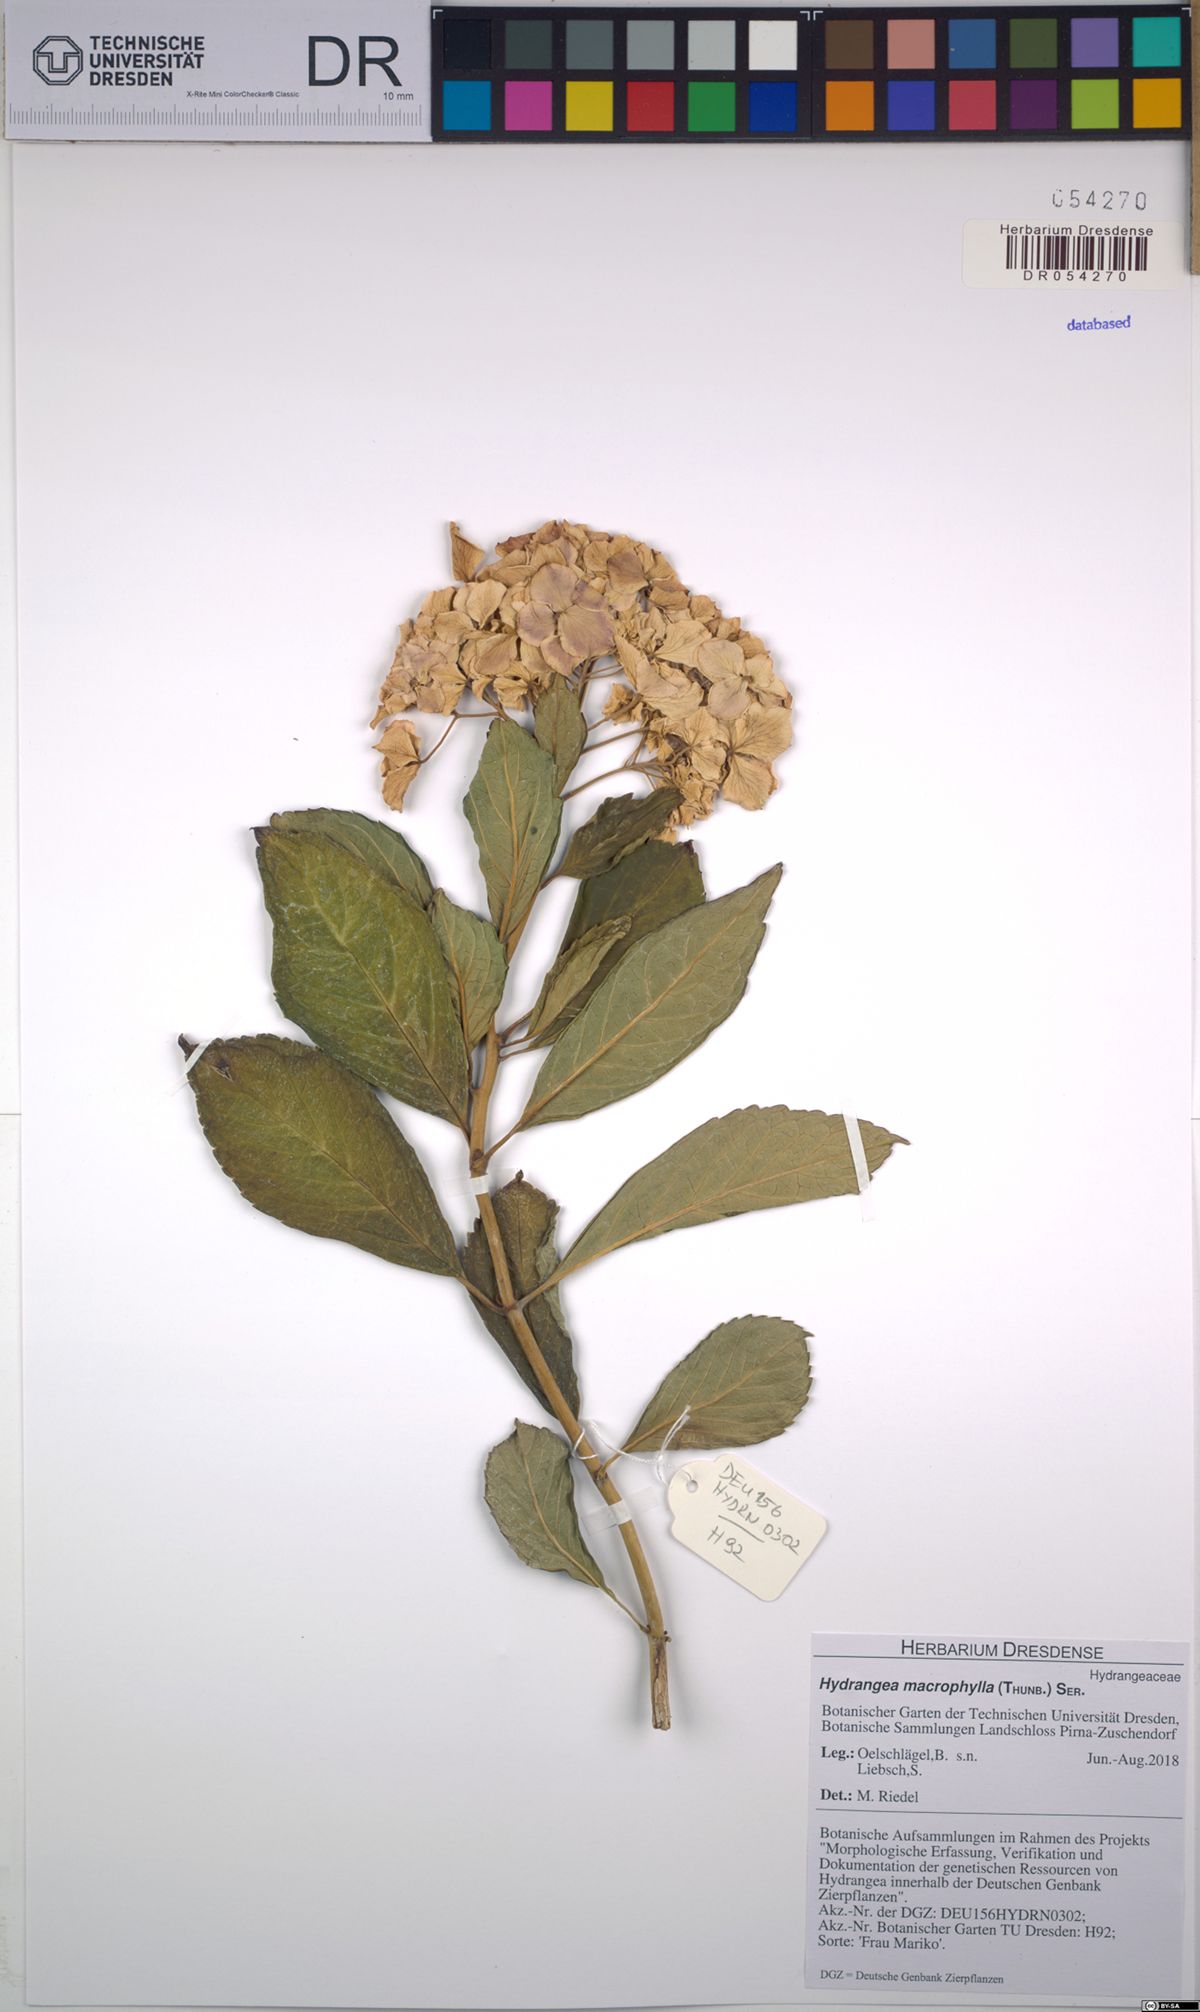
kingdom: Plantae
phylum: Tracheophyta
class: Magnoliopsida
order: Cornales
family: Hydrangeaceae
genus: Hydrangea
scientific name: Hydrangea macrophylla
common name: Hydrangea
